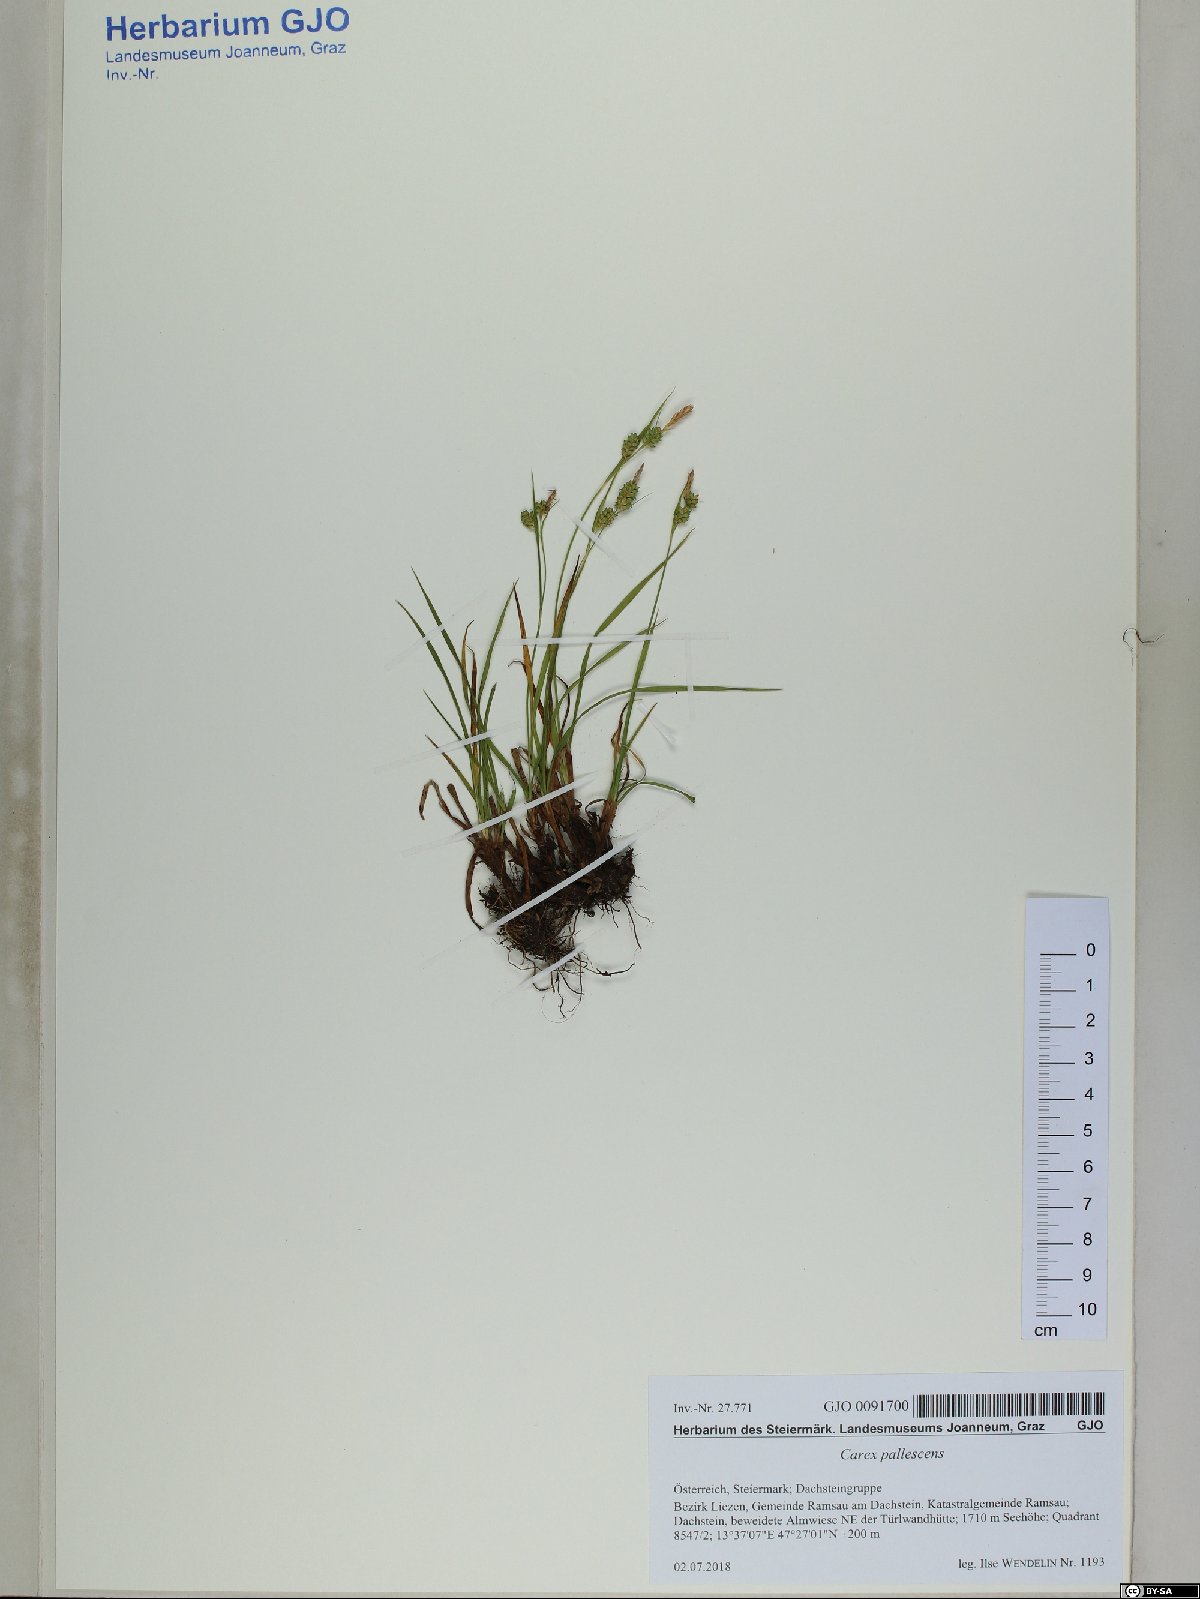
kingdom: Plantae
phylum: Tracheophyta
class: Liliopsida
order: Poales
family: Cyperaceae
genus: Carex
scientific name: Carex pallescens
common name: Pale sedge
